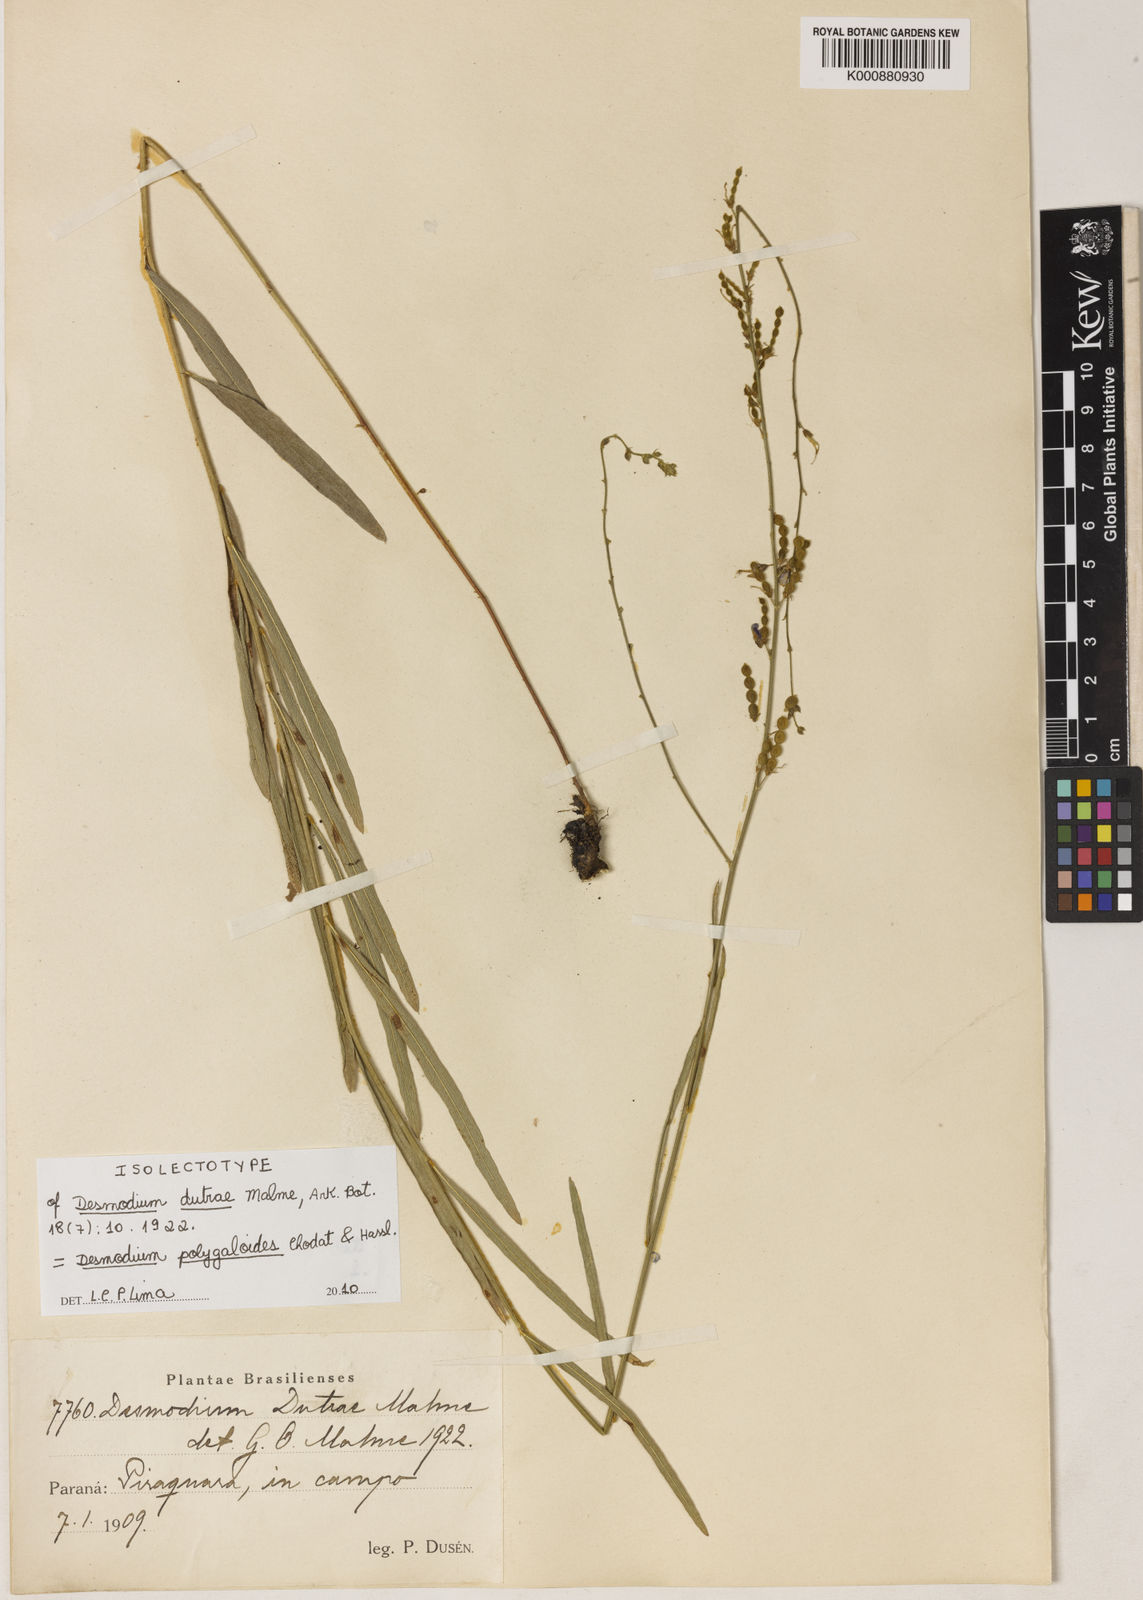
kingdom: Plantae
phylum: Tracheophyta
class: Magnoliopsida
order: Fabales
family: Fabaceae
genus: Desmodium
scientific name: Desmodium polygaloides
